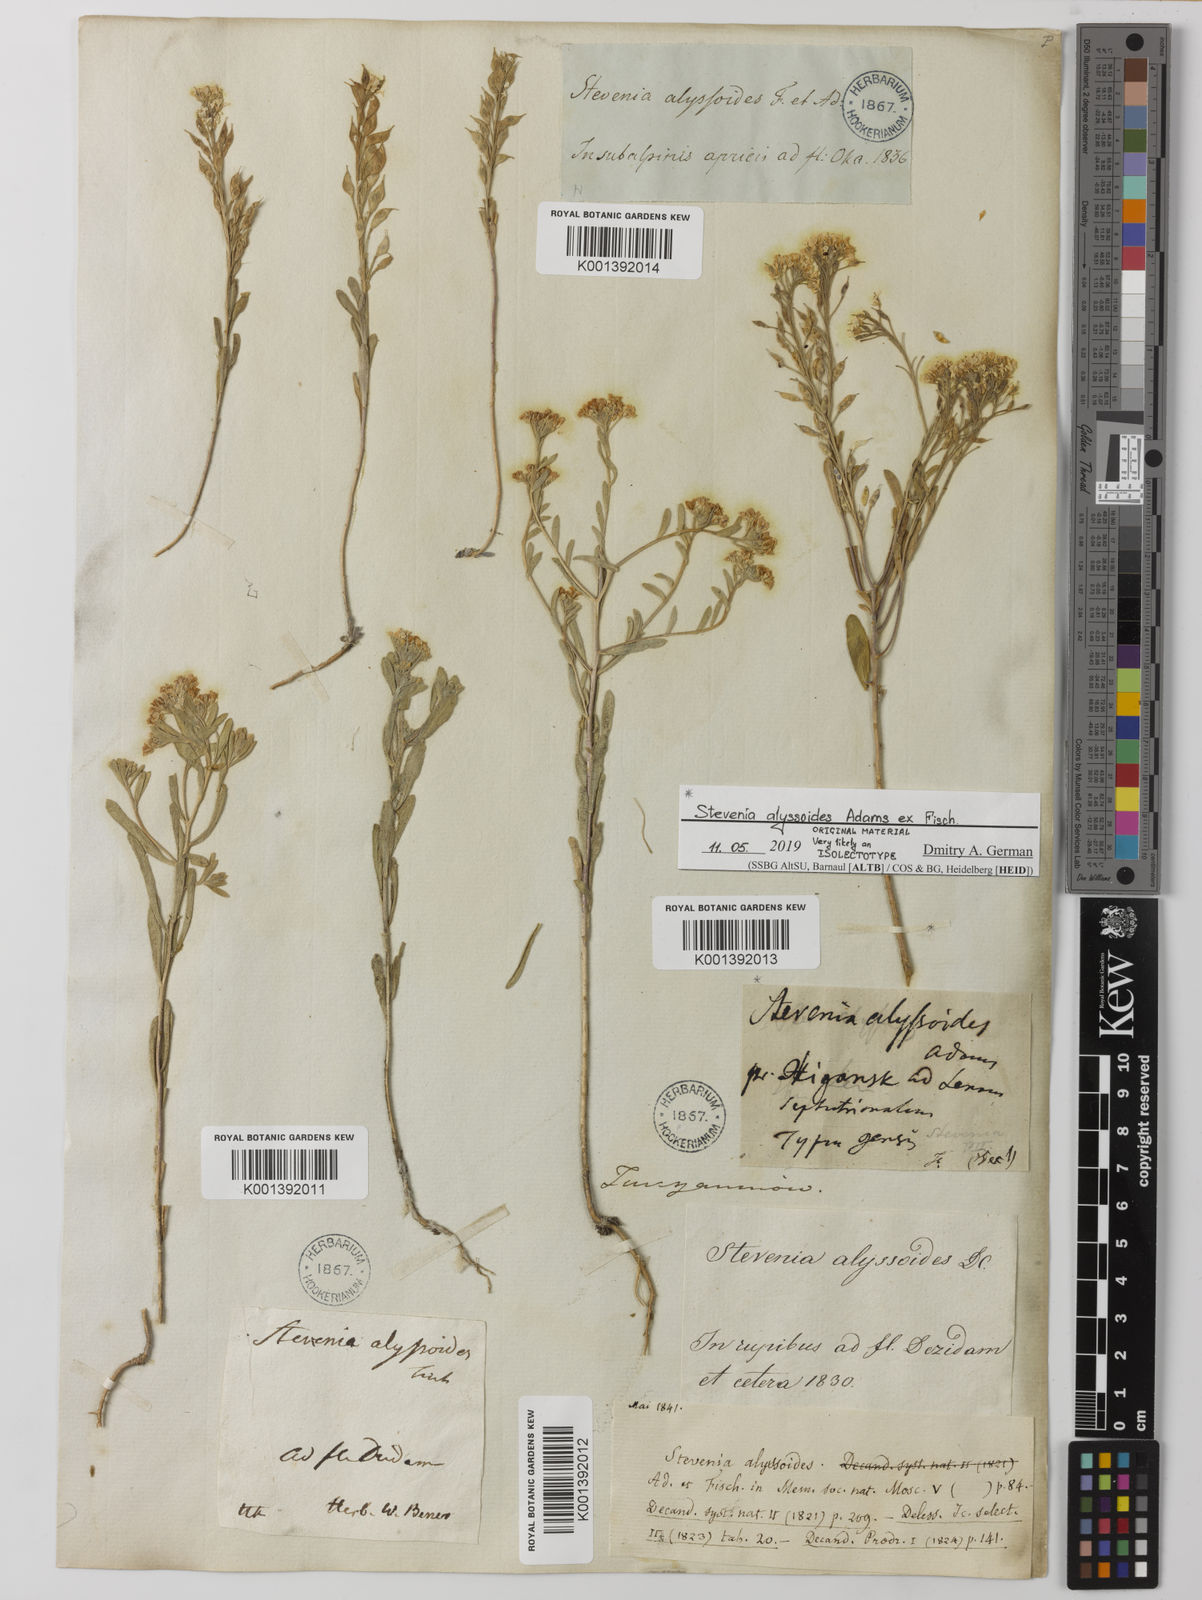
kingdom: Plantae
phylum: Tracheophyta
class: Magnoliopsida
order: Brassicales
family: Brassicaceae
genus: Stevenia
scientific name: Stevenia alyssoides
